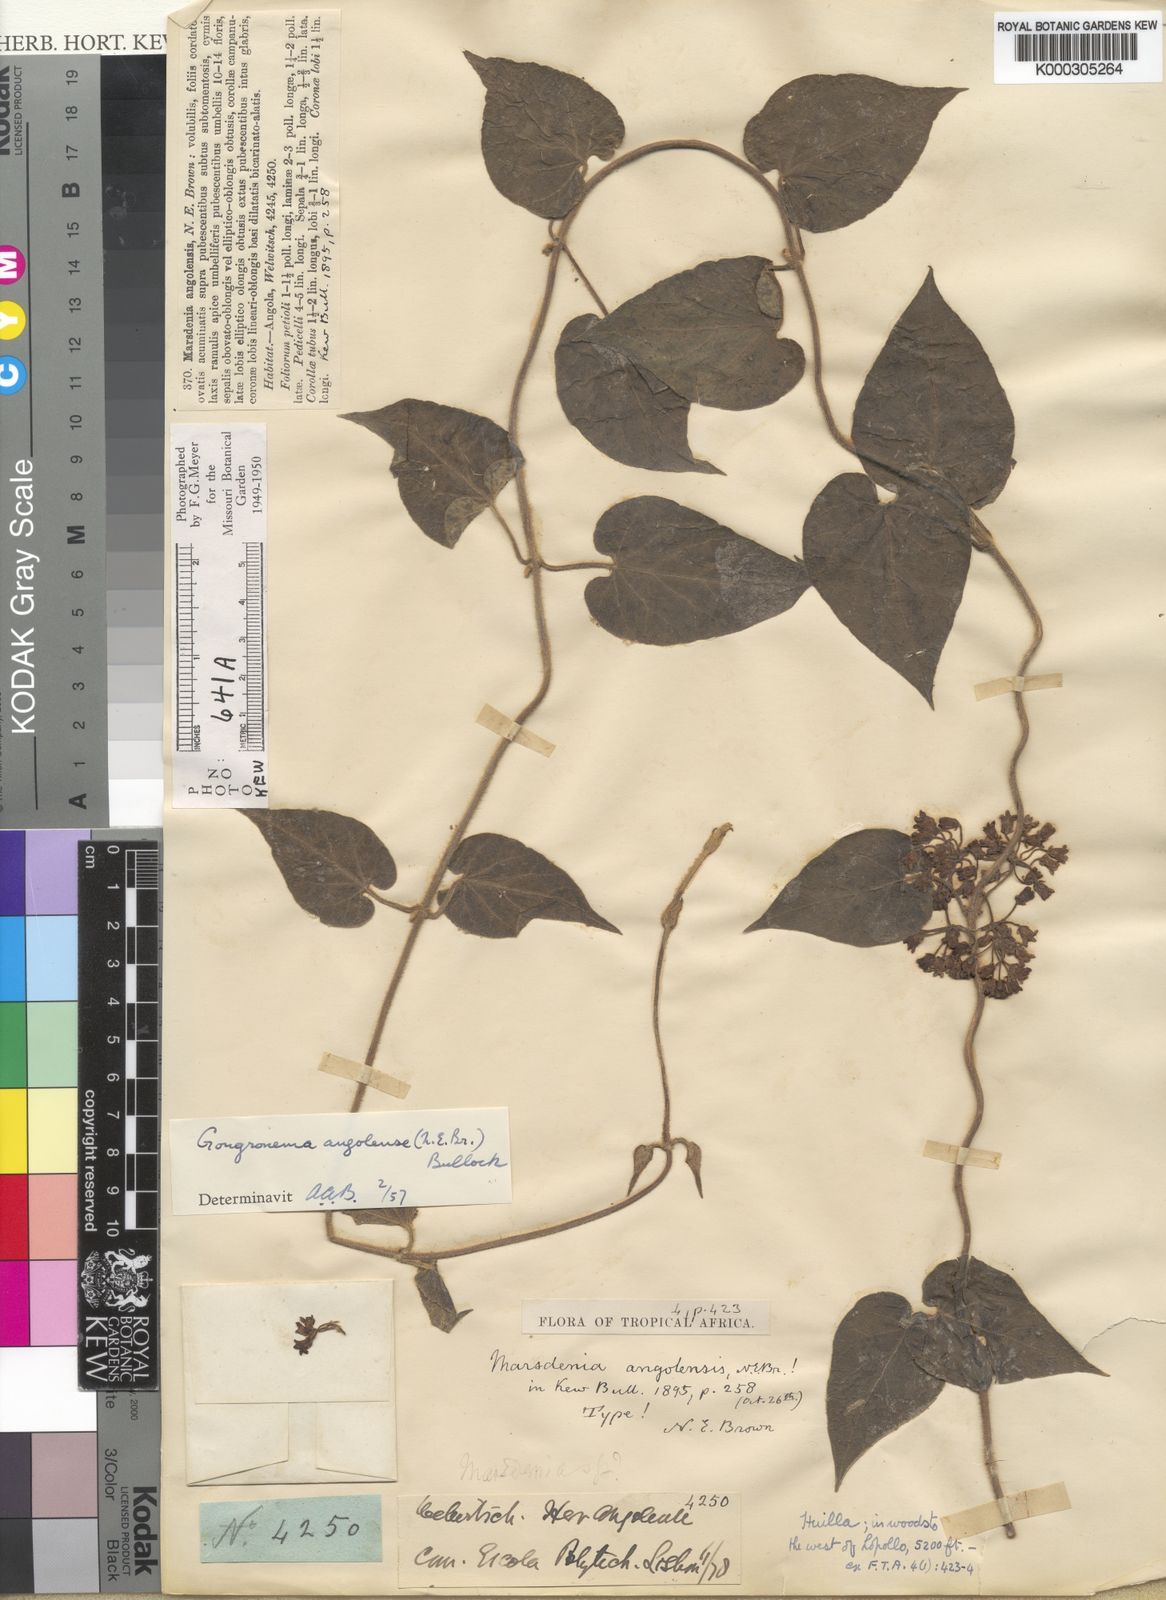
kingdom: Plantae
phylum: Tracheophyta
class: Magnoliopsida
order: Gentianales
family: Apocynaceae
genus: Gongronemopsis
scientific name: Gongronemopsis angolensis
